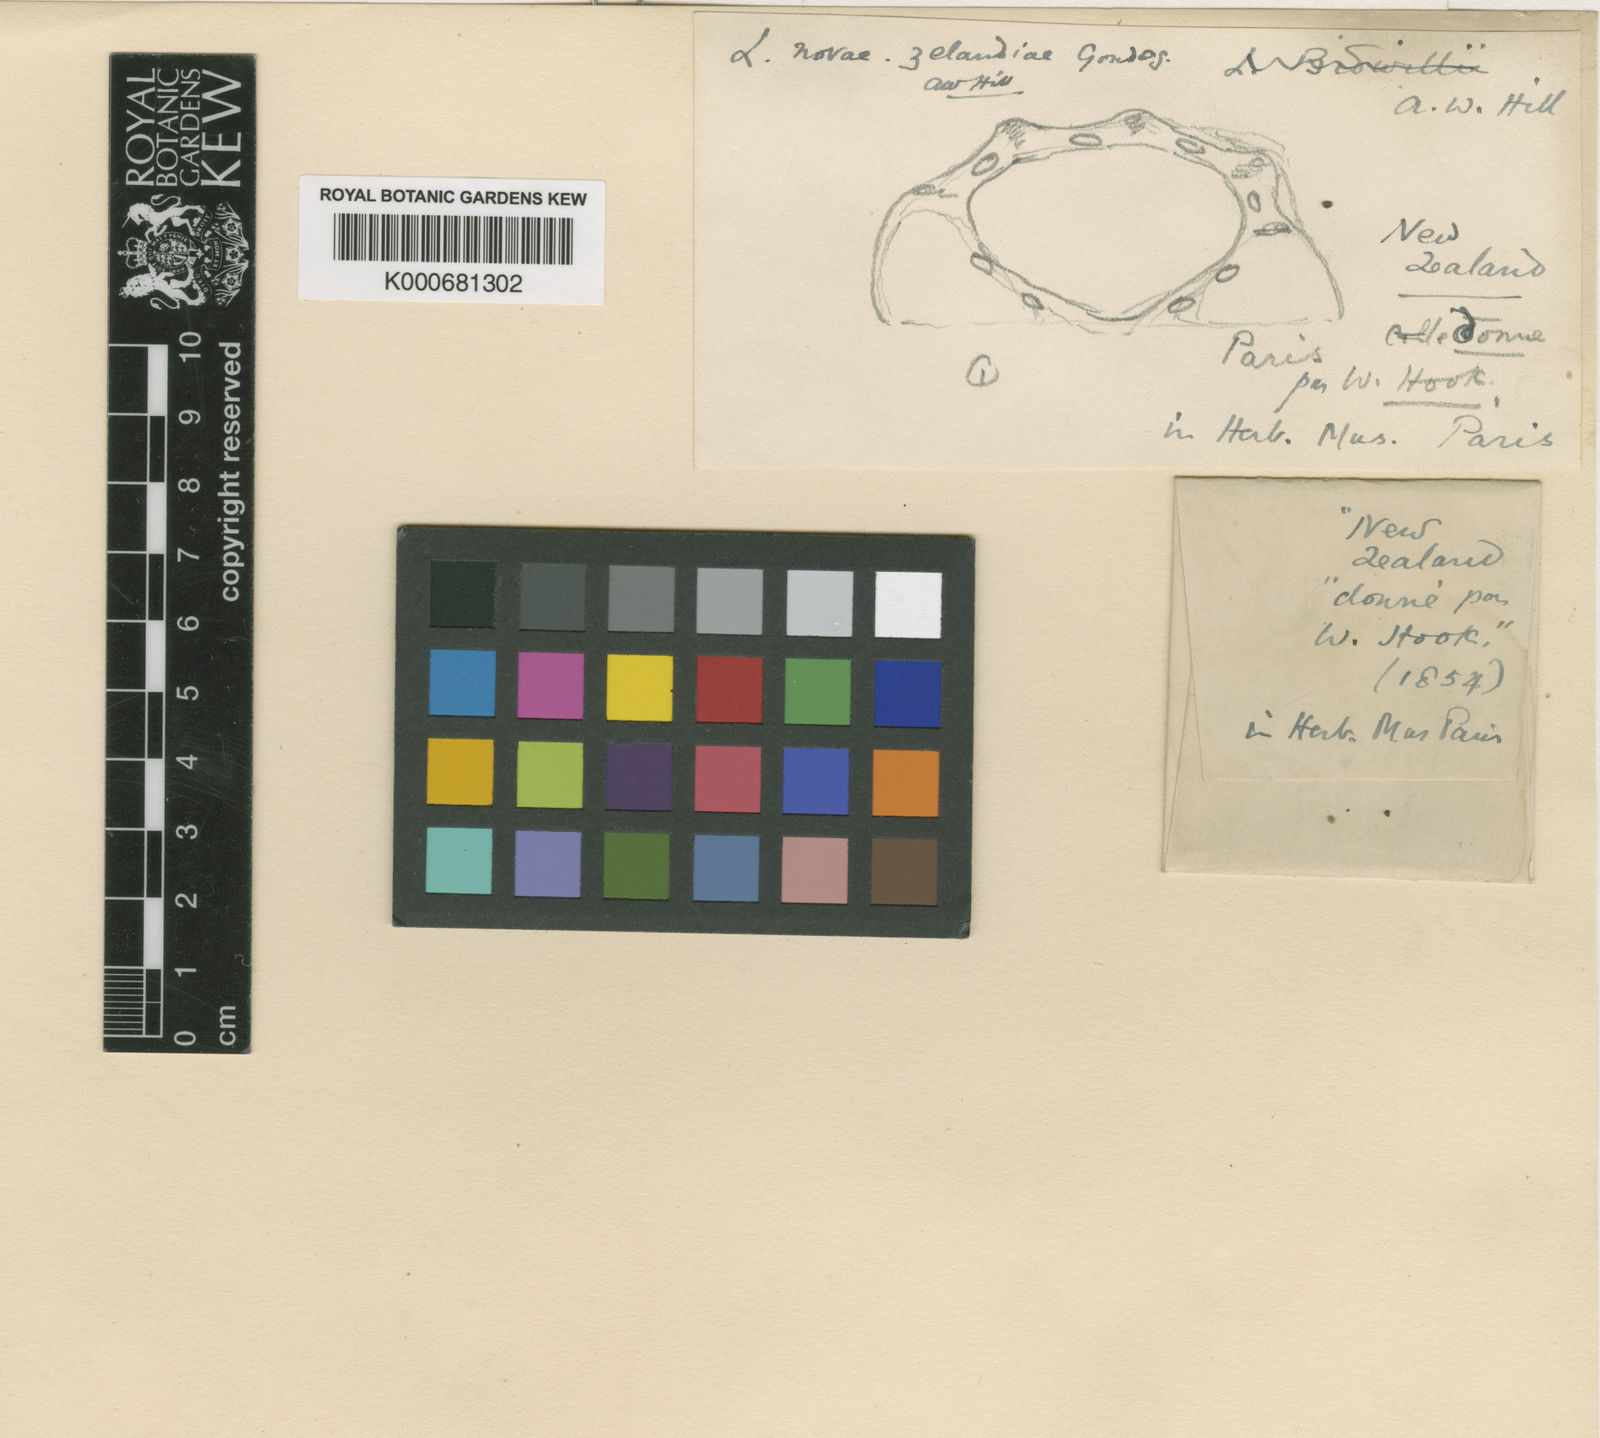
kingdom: Plantae
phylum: Tracheophyta
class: Magnoliopsida
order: Apiales
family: Apiaceae
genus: Lilaeopsis
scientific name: Lilaeopsis novae-zelandiae
